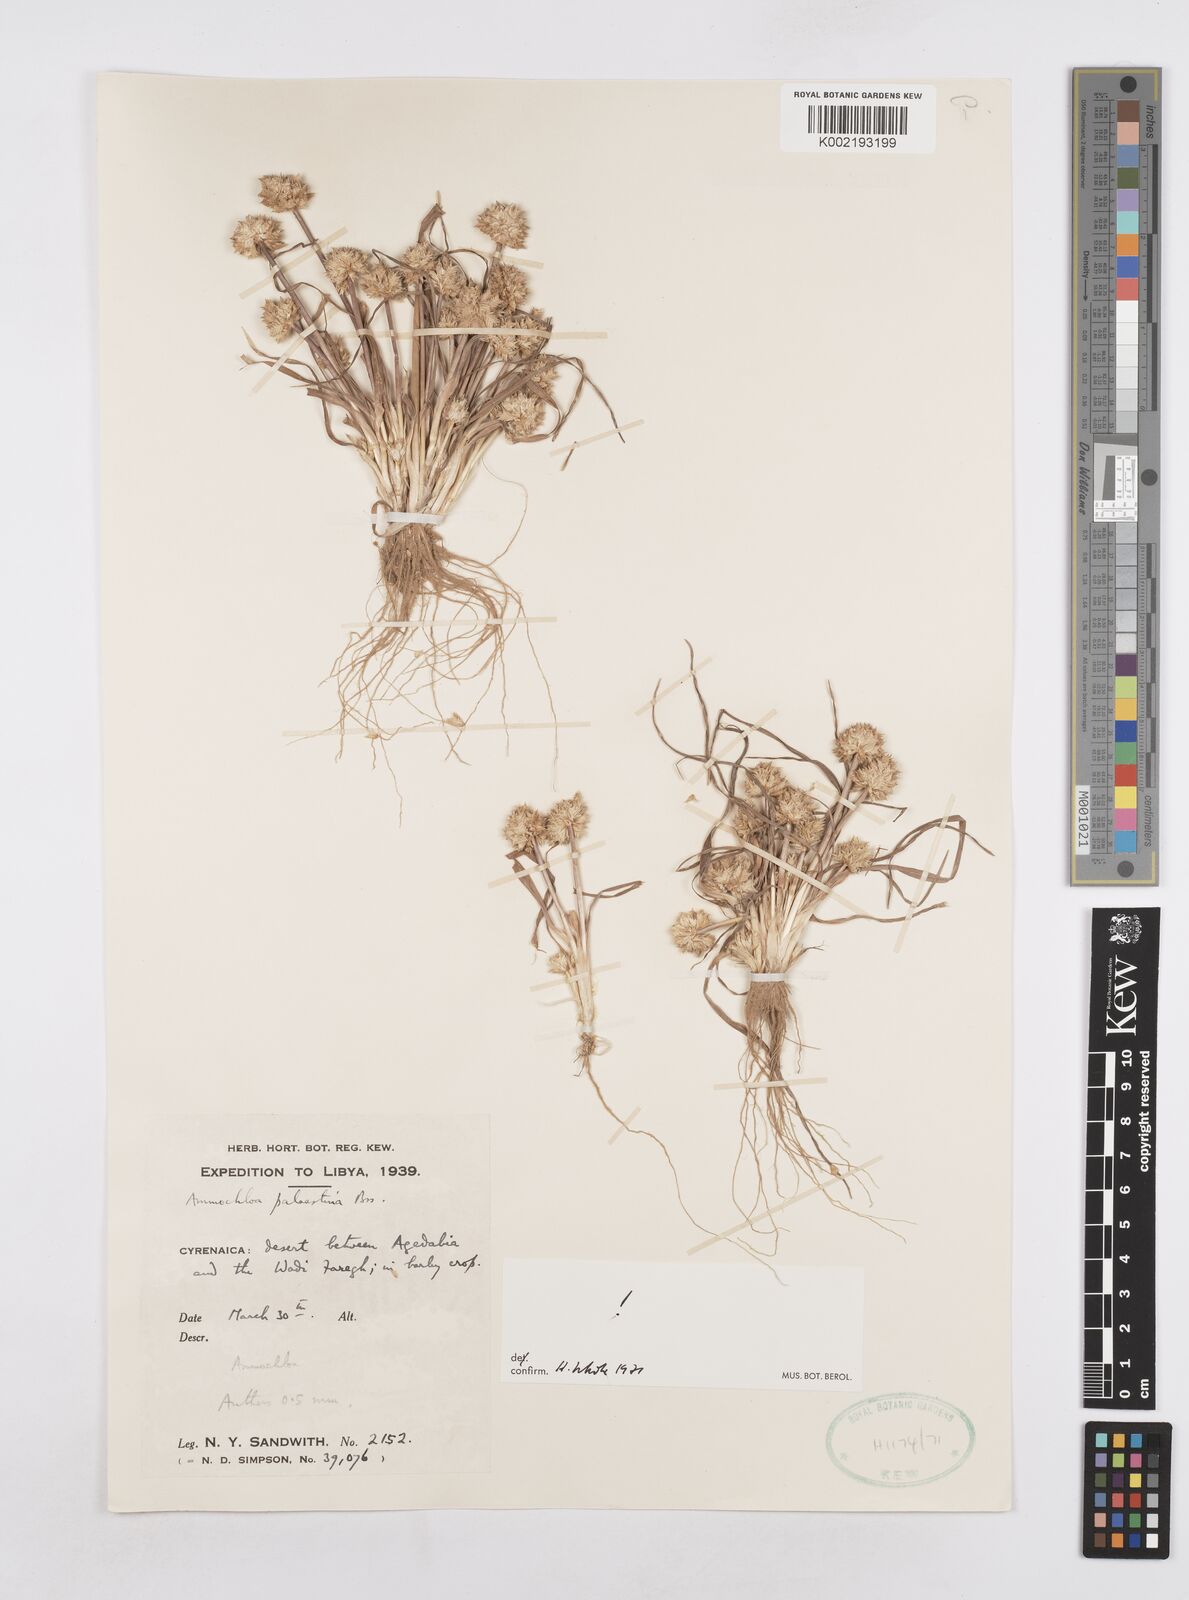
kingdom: Plantae
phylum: Tracheophyta
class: Liliopsida
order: Poales
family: Poaceae
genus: Ammochloa
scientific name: Ammochloa palaestina
